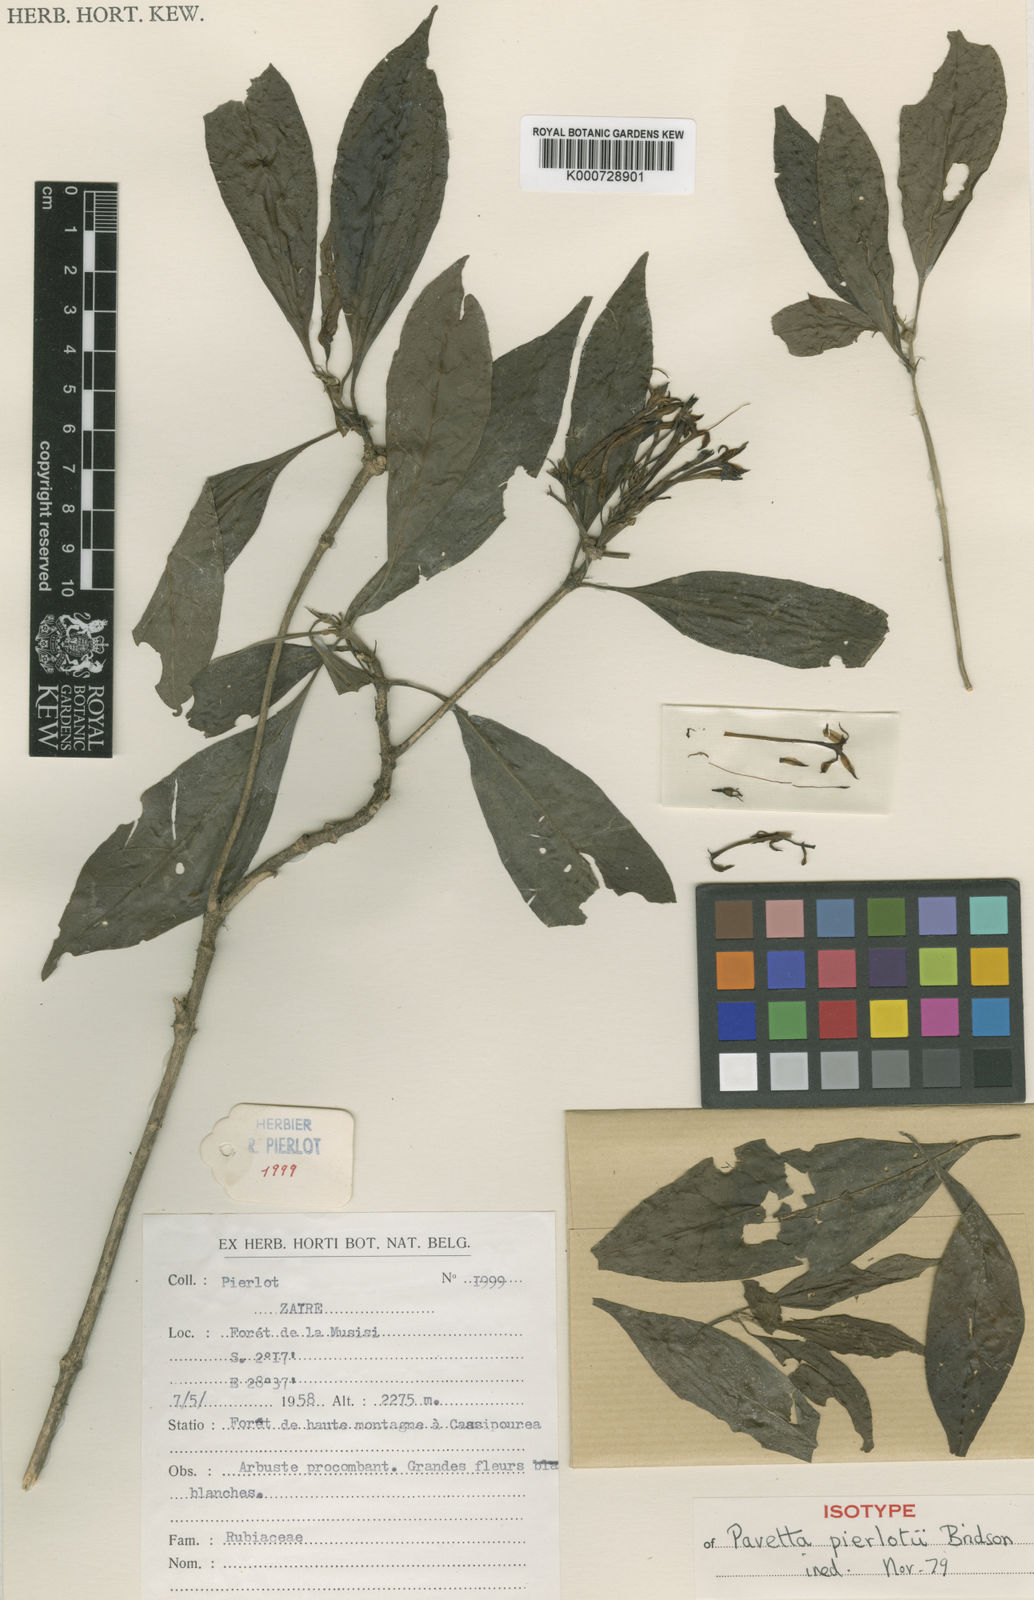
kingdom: Plantae
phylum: Tracheophyta
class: Magnoliopsida
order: Gentianales
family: Rubiaceae
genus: Pavetta
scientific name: Pavetta pierlotii
